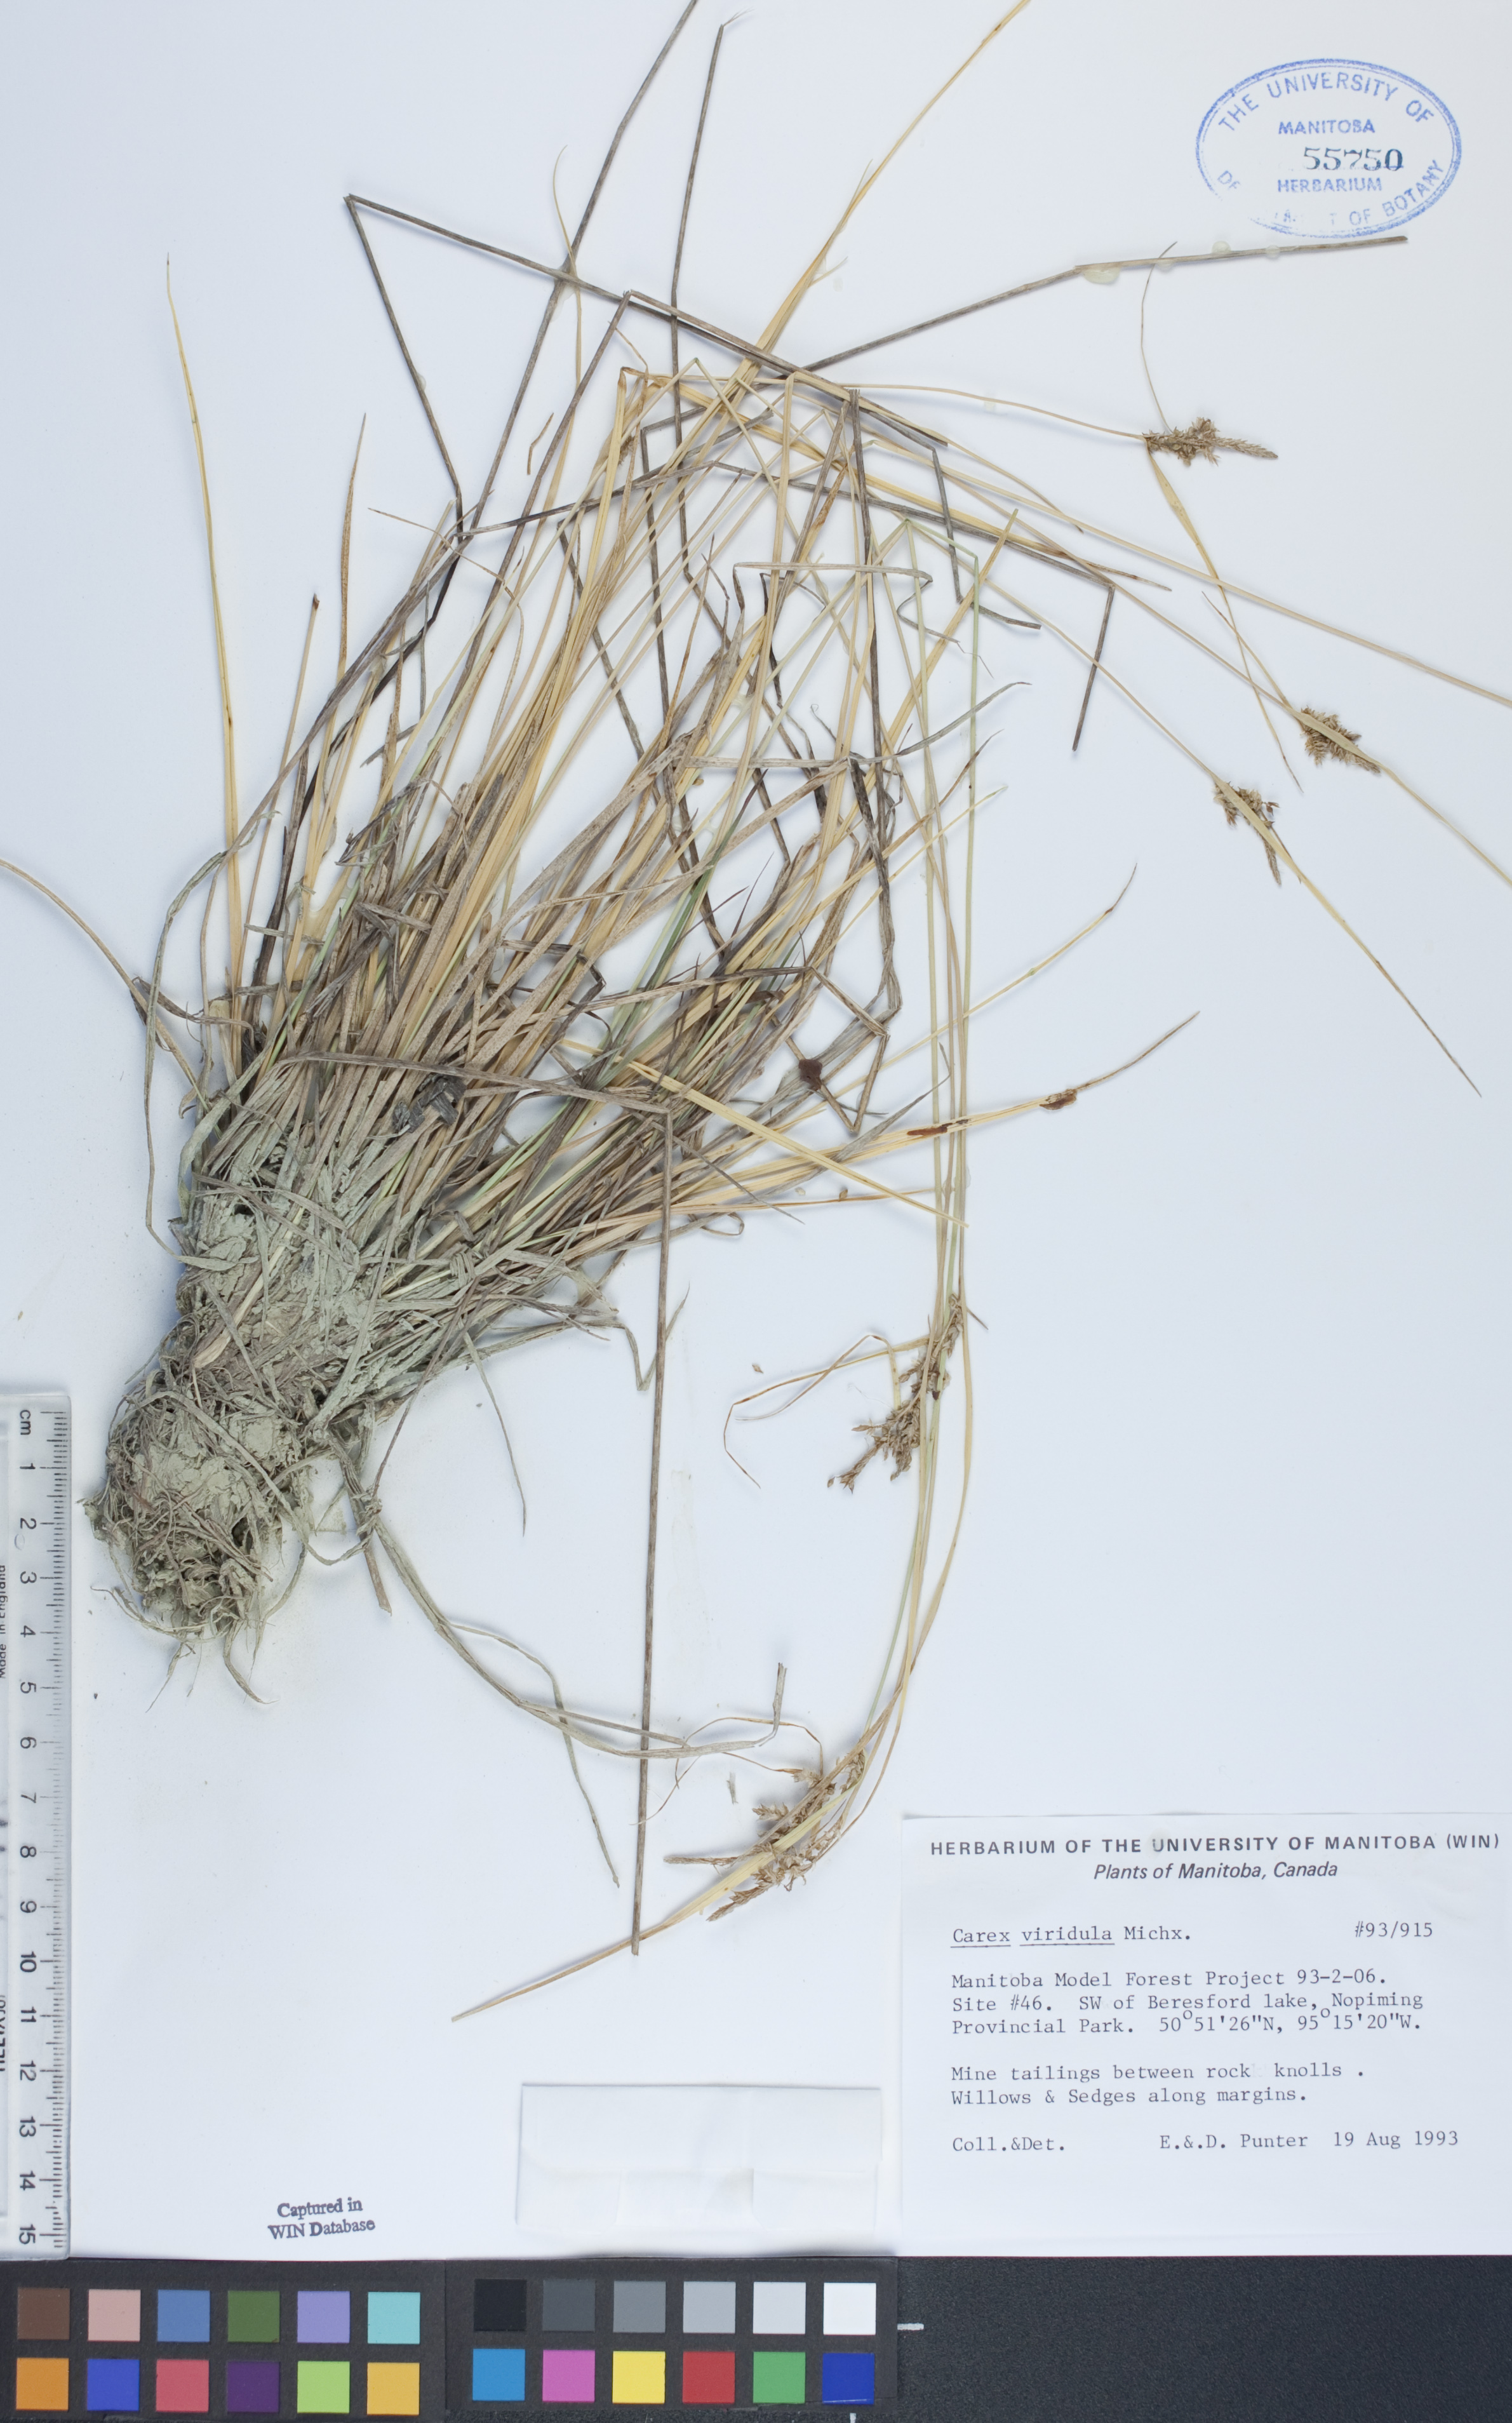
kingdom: Plantae
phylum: Tracheophyta
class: Liliopsida
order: Poales
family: Cyperaceae
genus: Carex
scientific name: Carex oederi
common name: Common & small-fruited yellow-sedge
